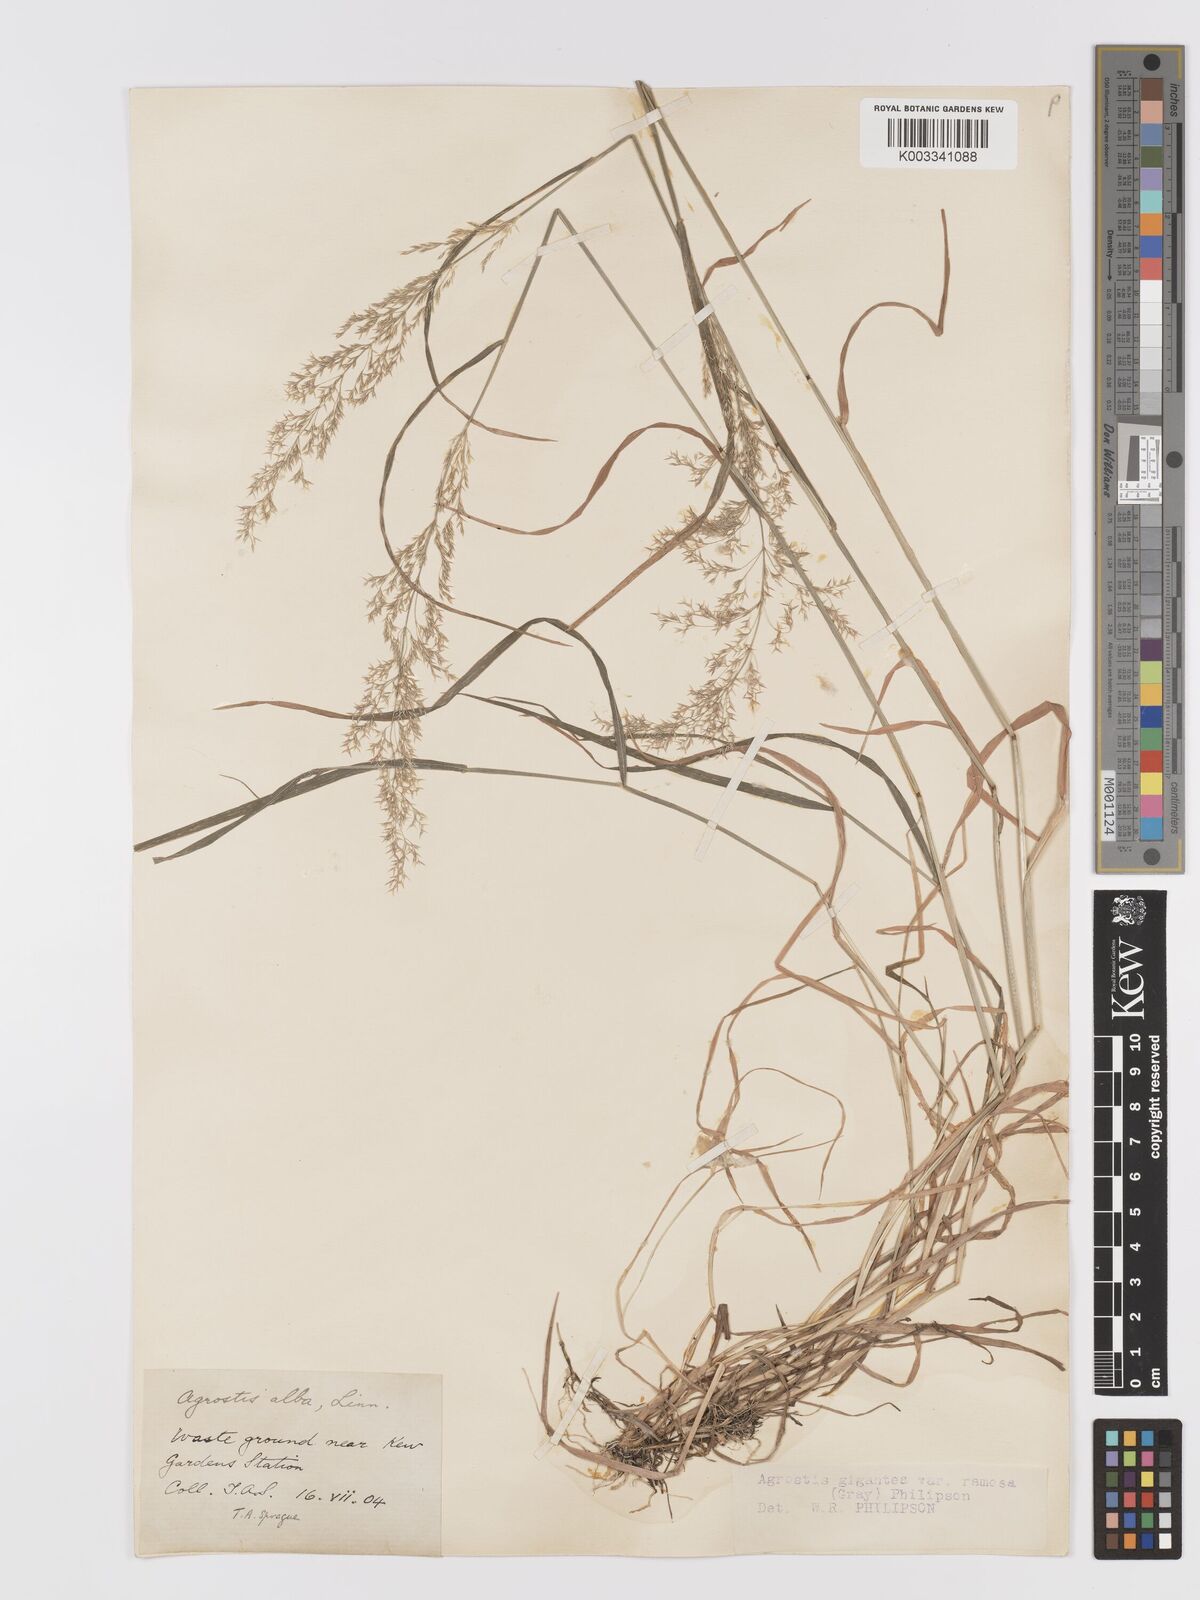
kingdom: Plantae
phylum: Tracheophyta
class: Liliopsida
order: Poales
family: Poaceae
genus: Agrostis
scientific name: Agrostis gigantea
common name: Black bent
